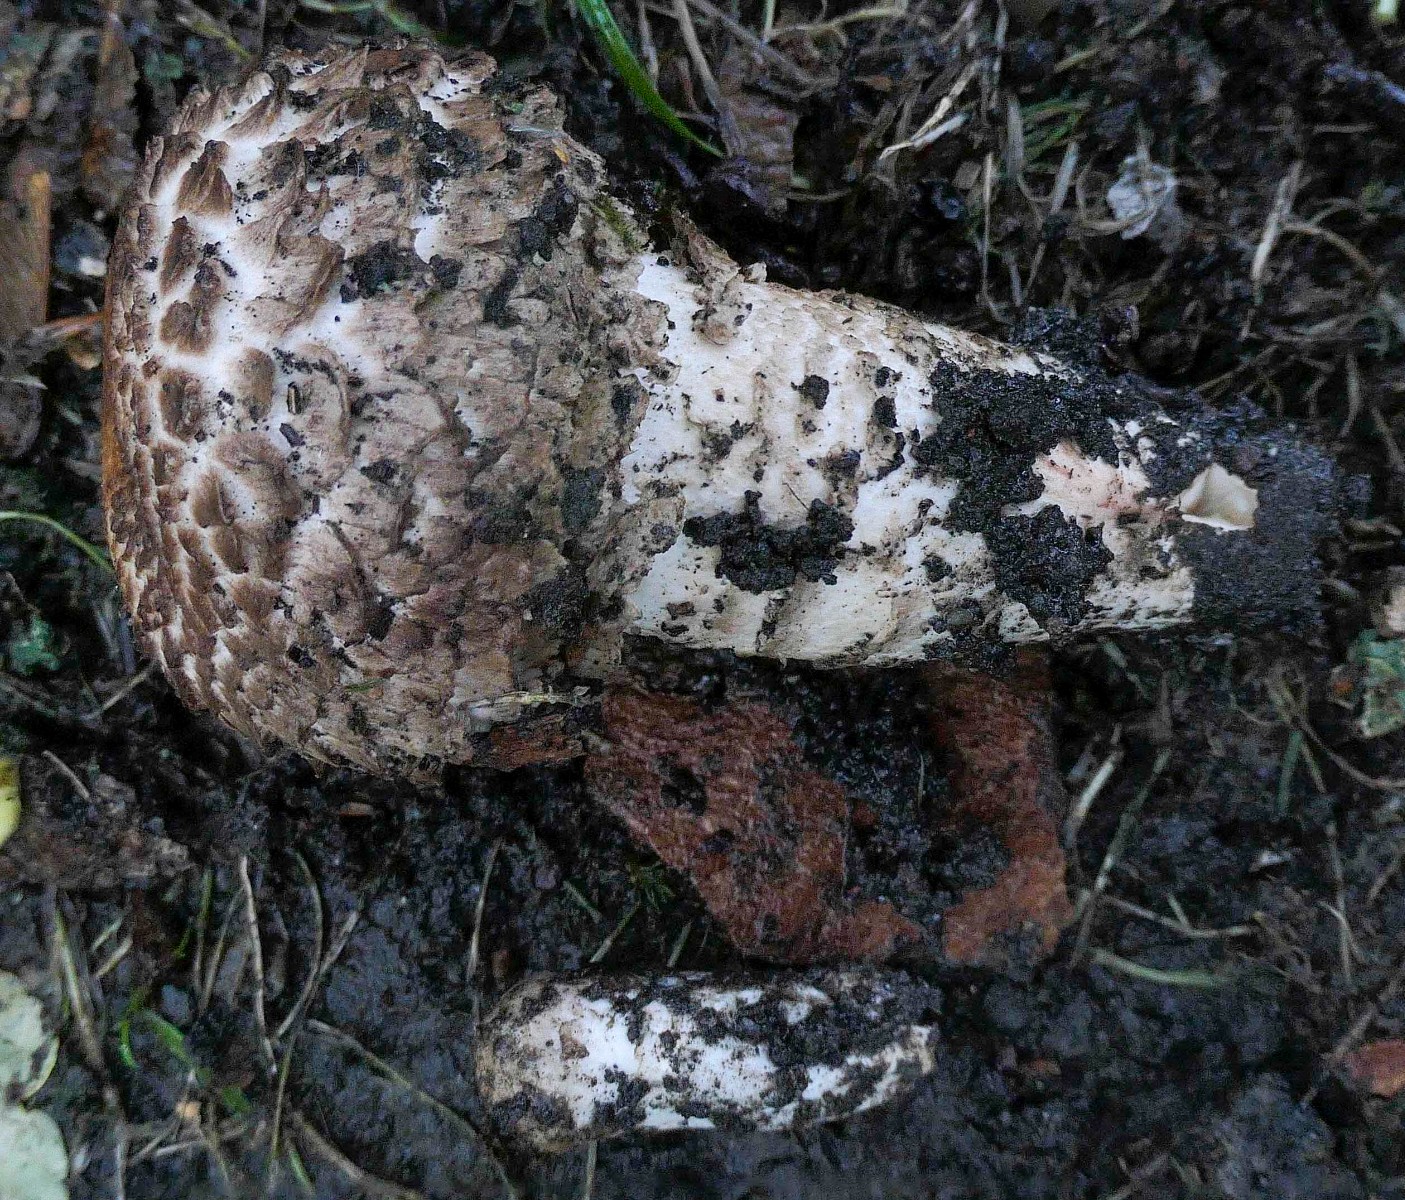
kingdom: Fungi
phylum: Basidiomycota
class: Agaricomycetes
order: Agaricales
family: Agaricaceae
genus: Agaricus
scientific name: Agaricus bohusii
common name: krumskællet champignon
